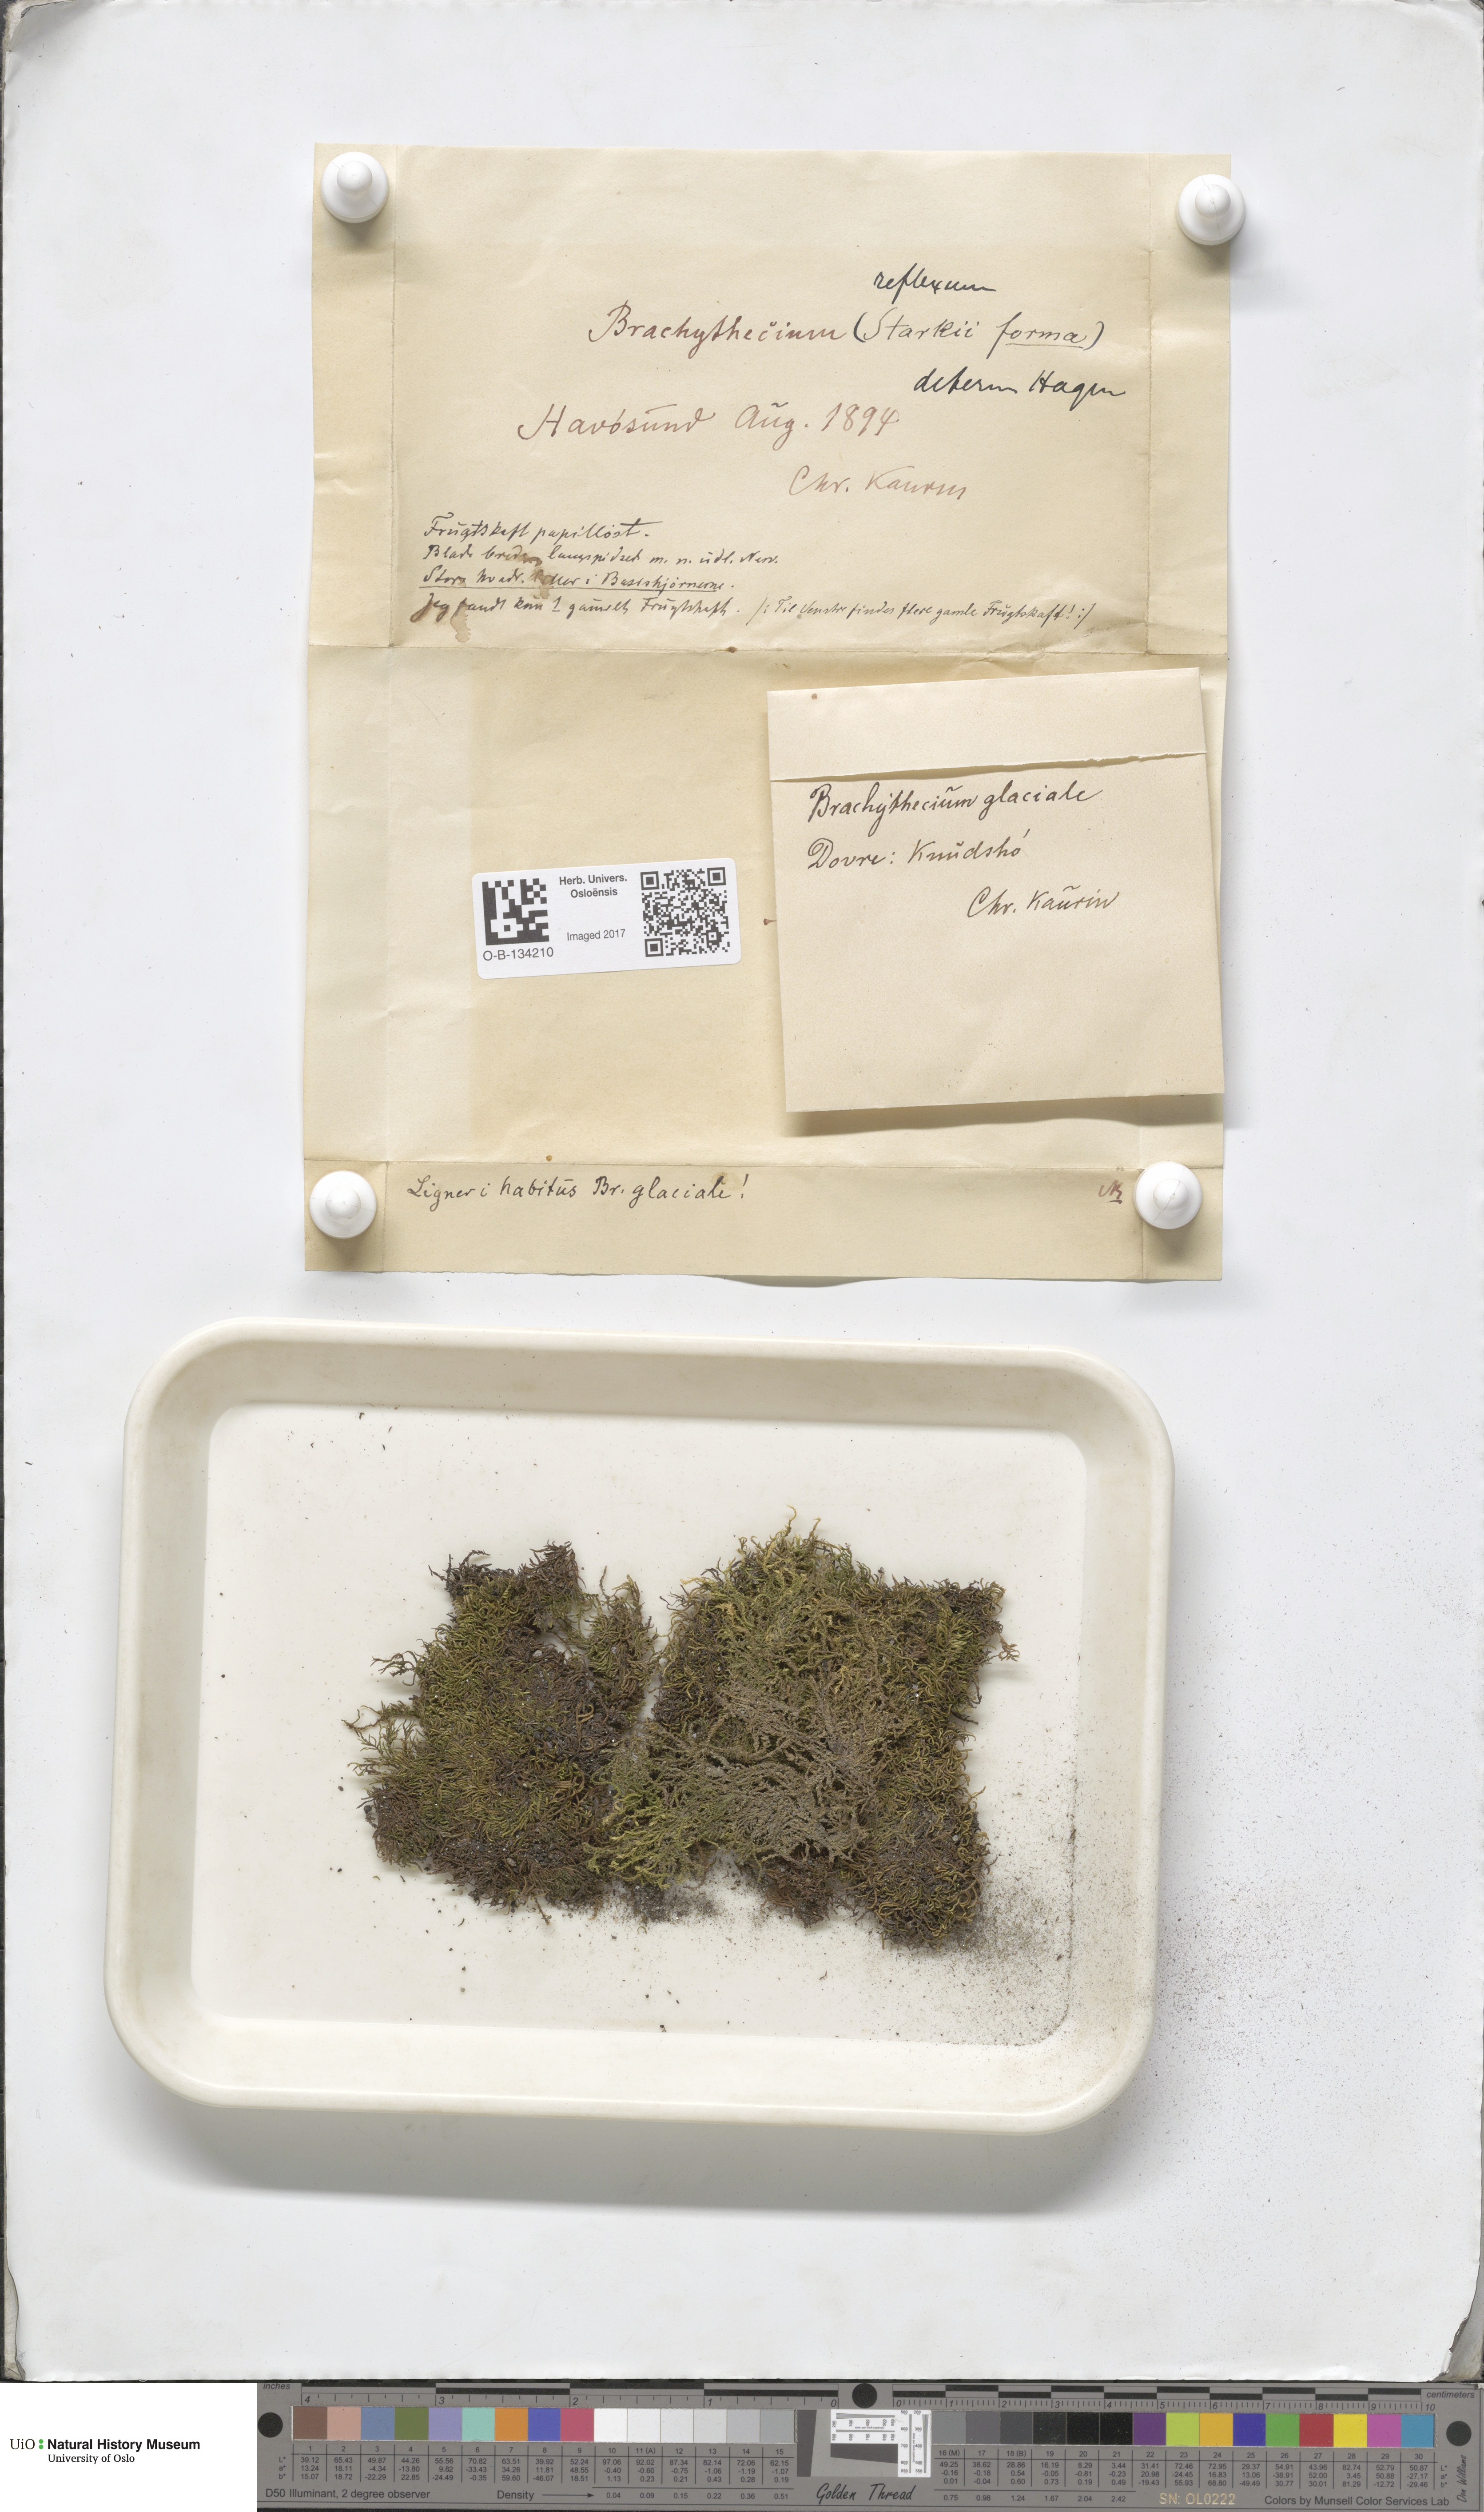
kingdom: Plantae
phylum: Bryophyta
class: Bryopsida
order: Hypnales
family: Brachytheciaceae
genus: Sciuro-hypnum
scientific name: Sciuro-hypnum reflexum
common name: Reflexed feather-moss
